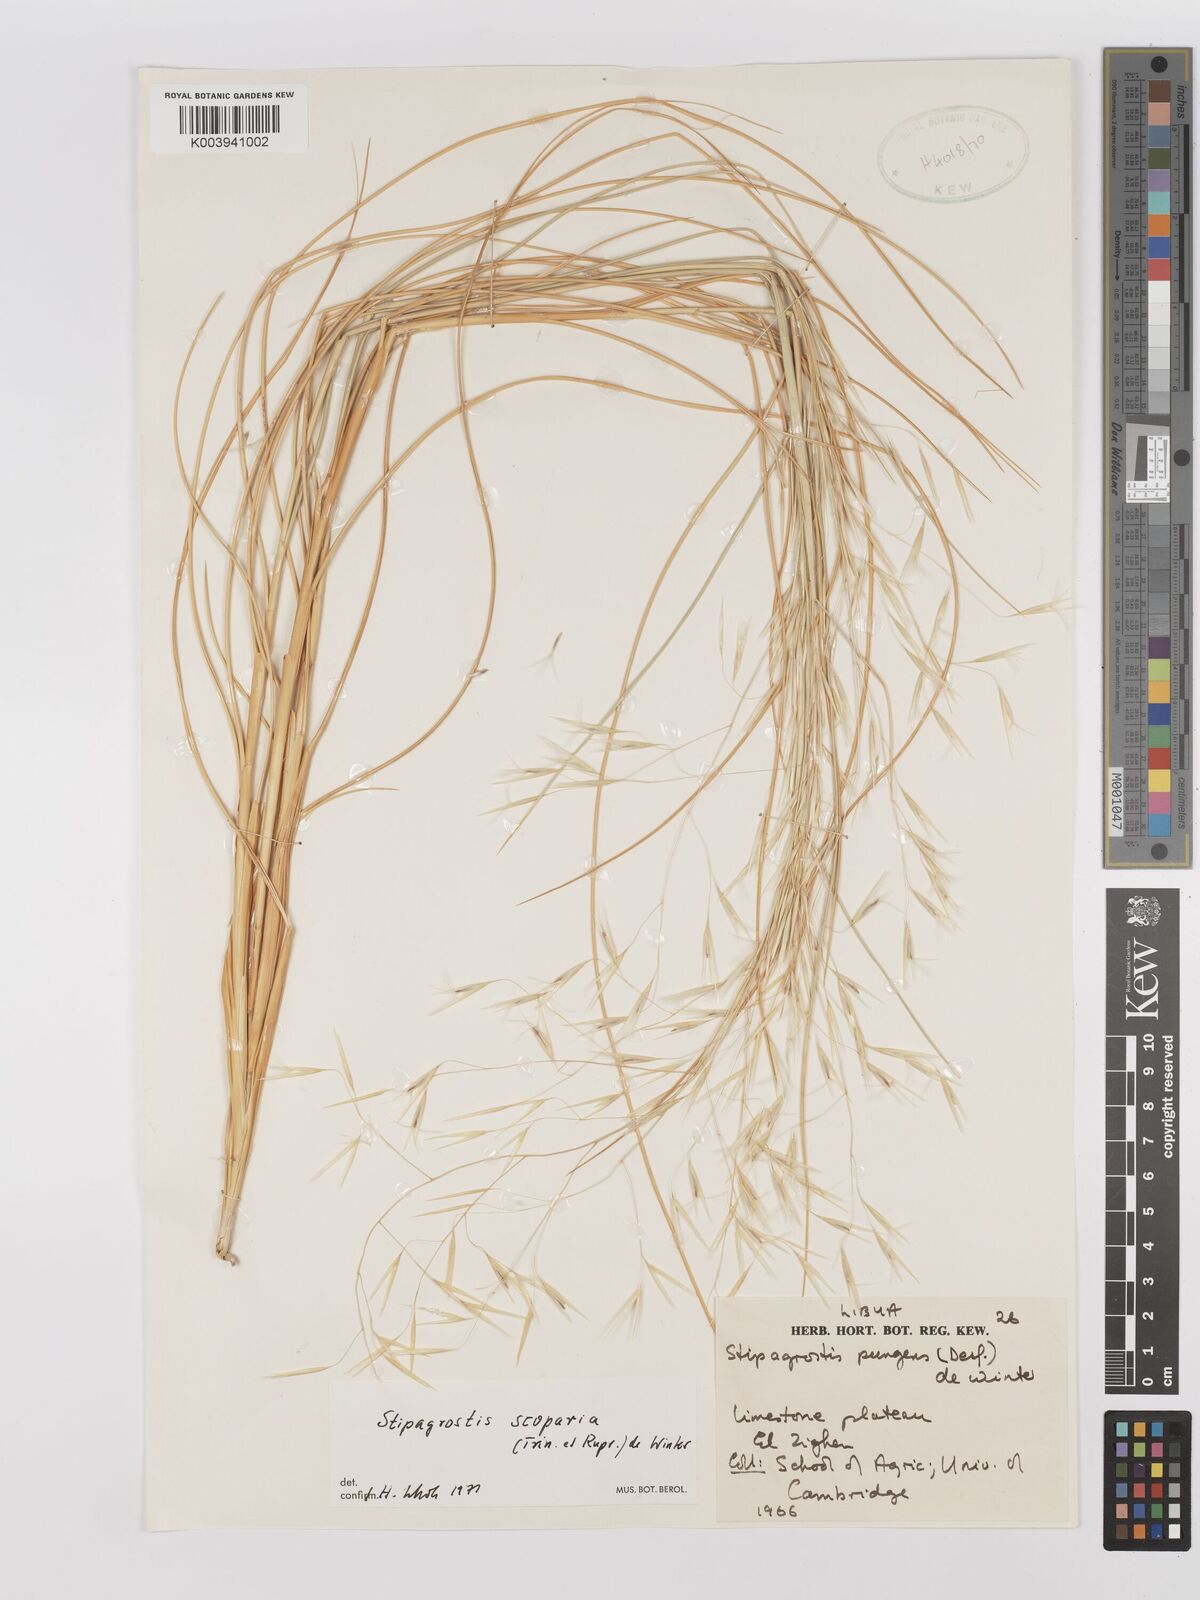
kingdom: Plantae
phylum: Tracheophyta
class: Liliopsida
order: Poales
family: Poaceae
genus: Stipagrostis
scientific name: Stipagrostis scoparia
